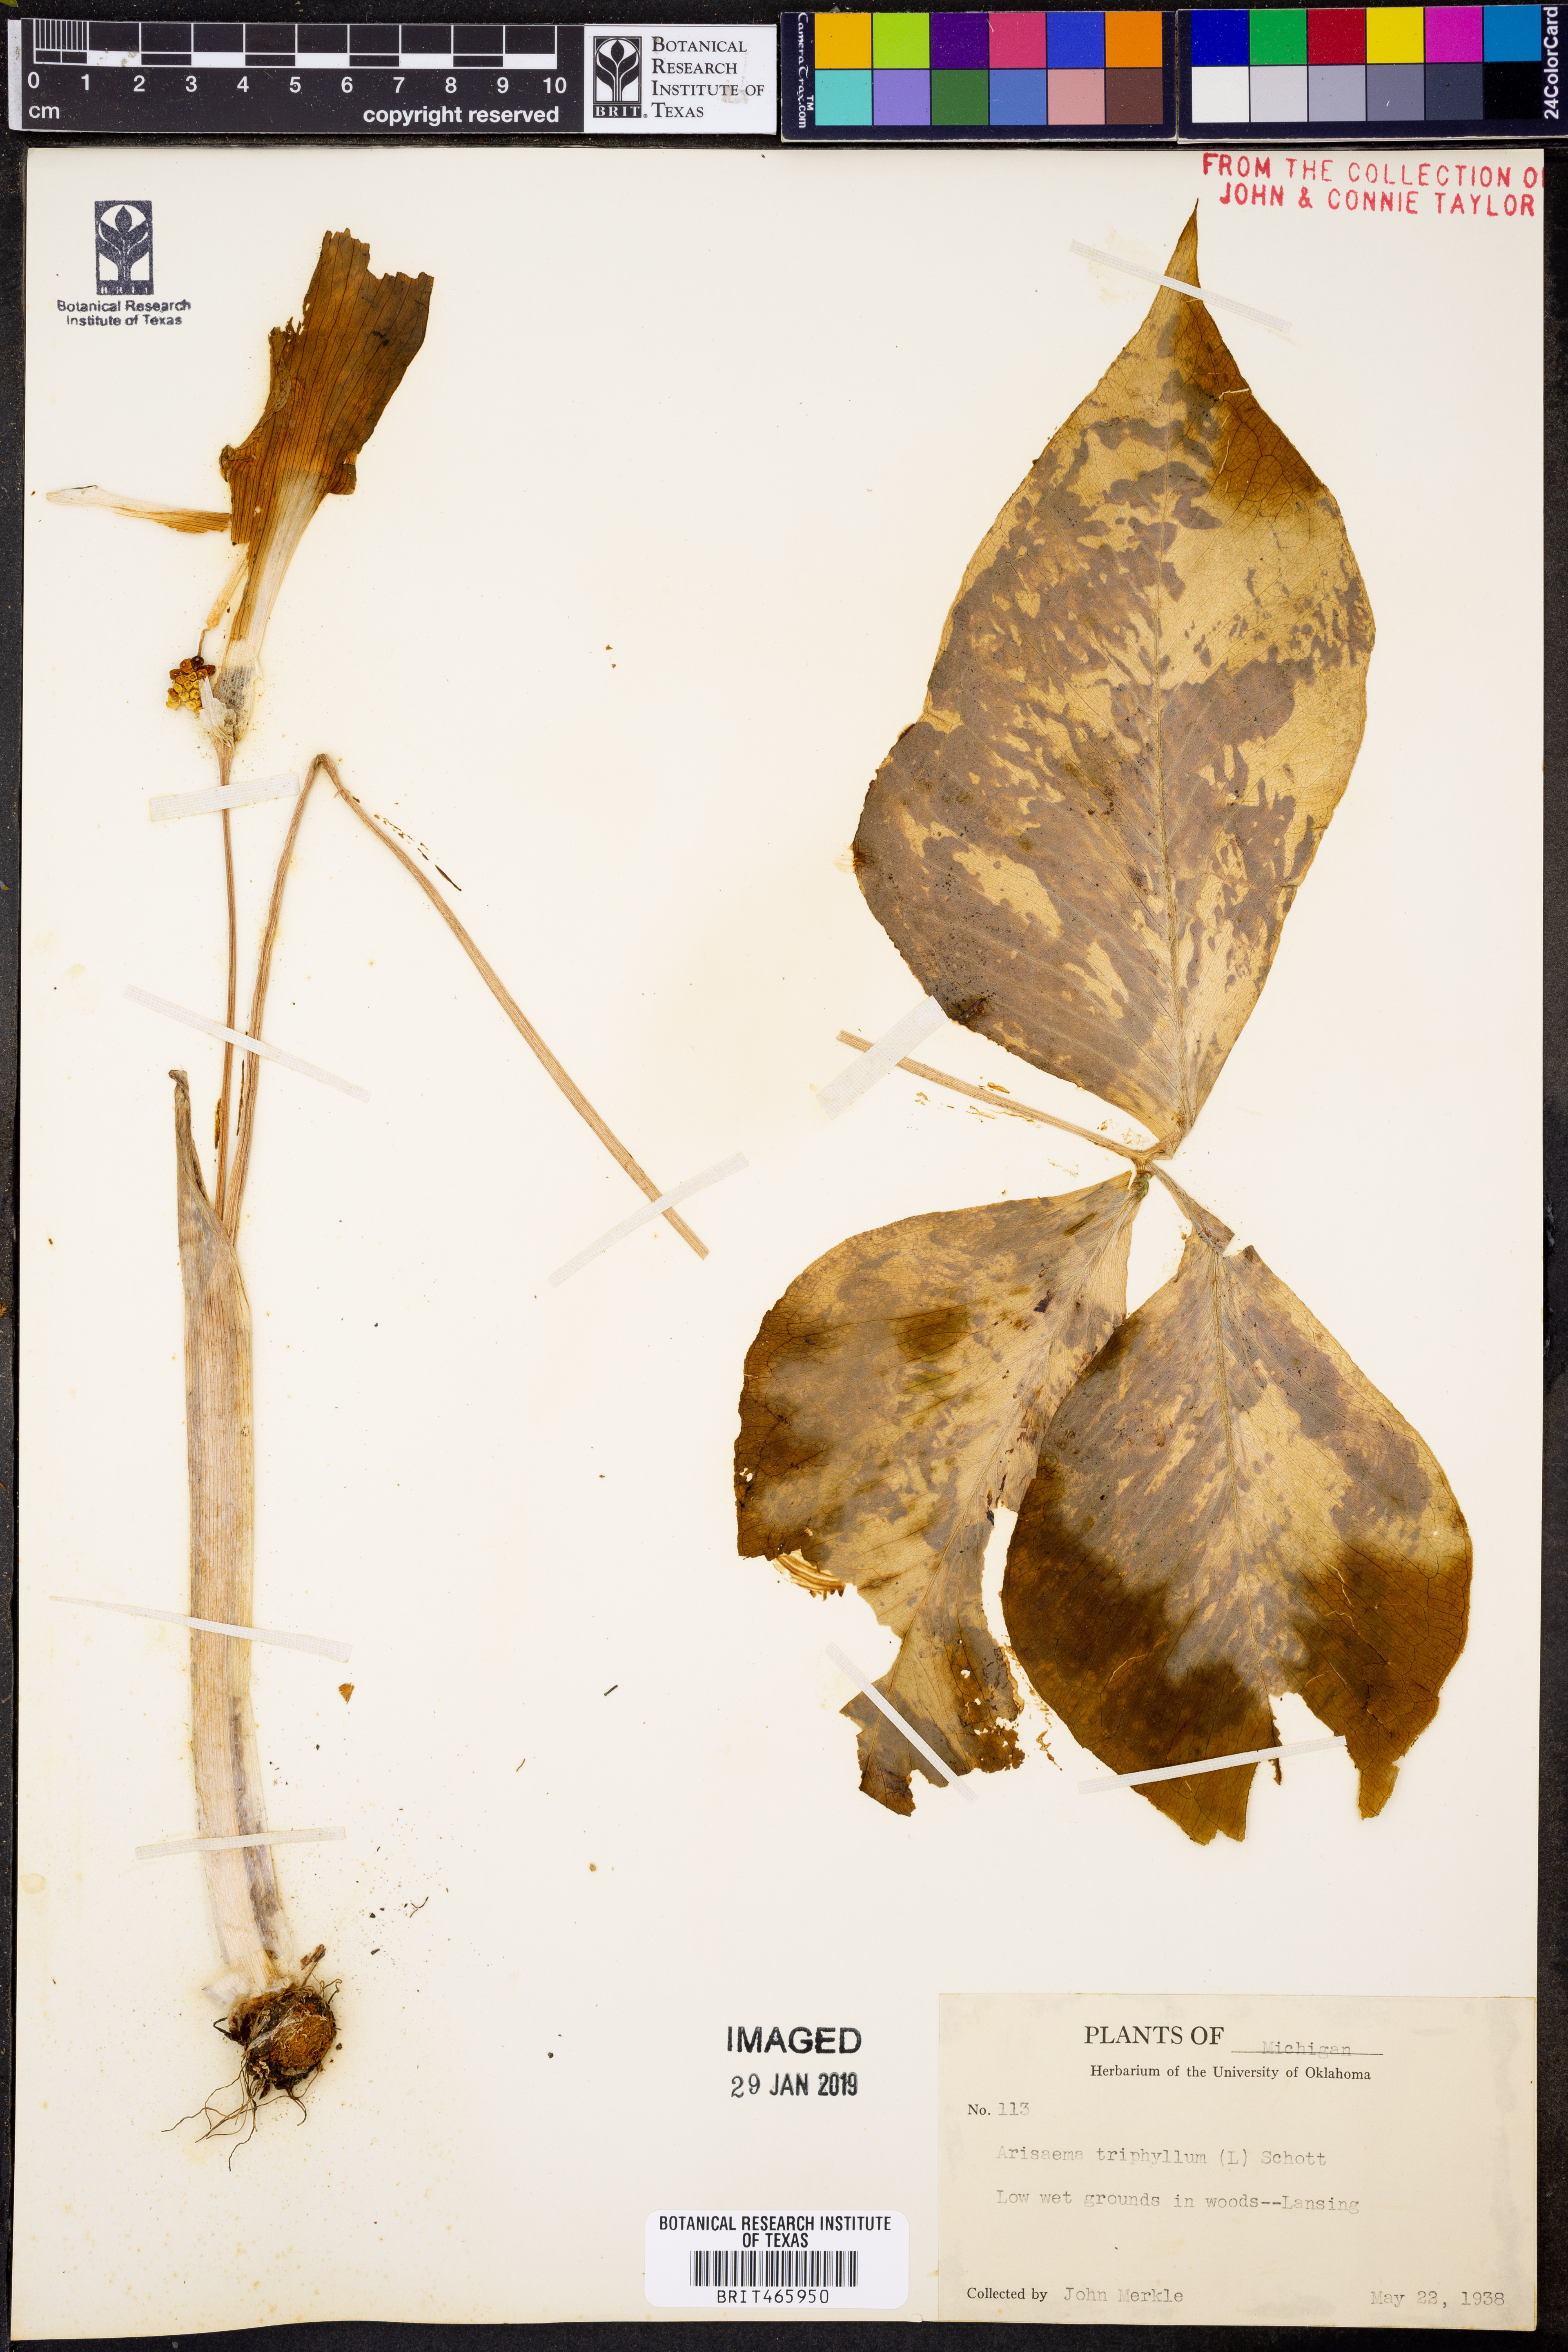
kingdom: Plantae
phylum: Tracheophyta
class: Liliopsida
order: Alismatales
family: Araceae
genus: Arisaema
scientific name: Arisaema triphyllum
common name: Jack-in-the-pulpit
